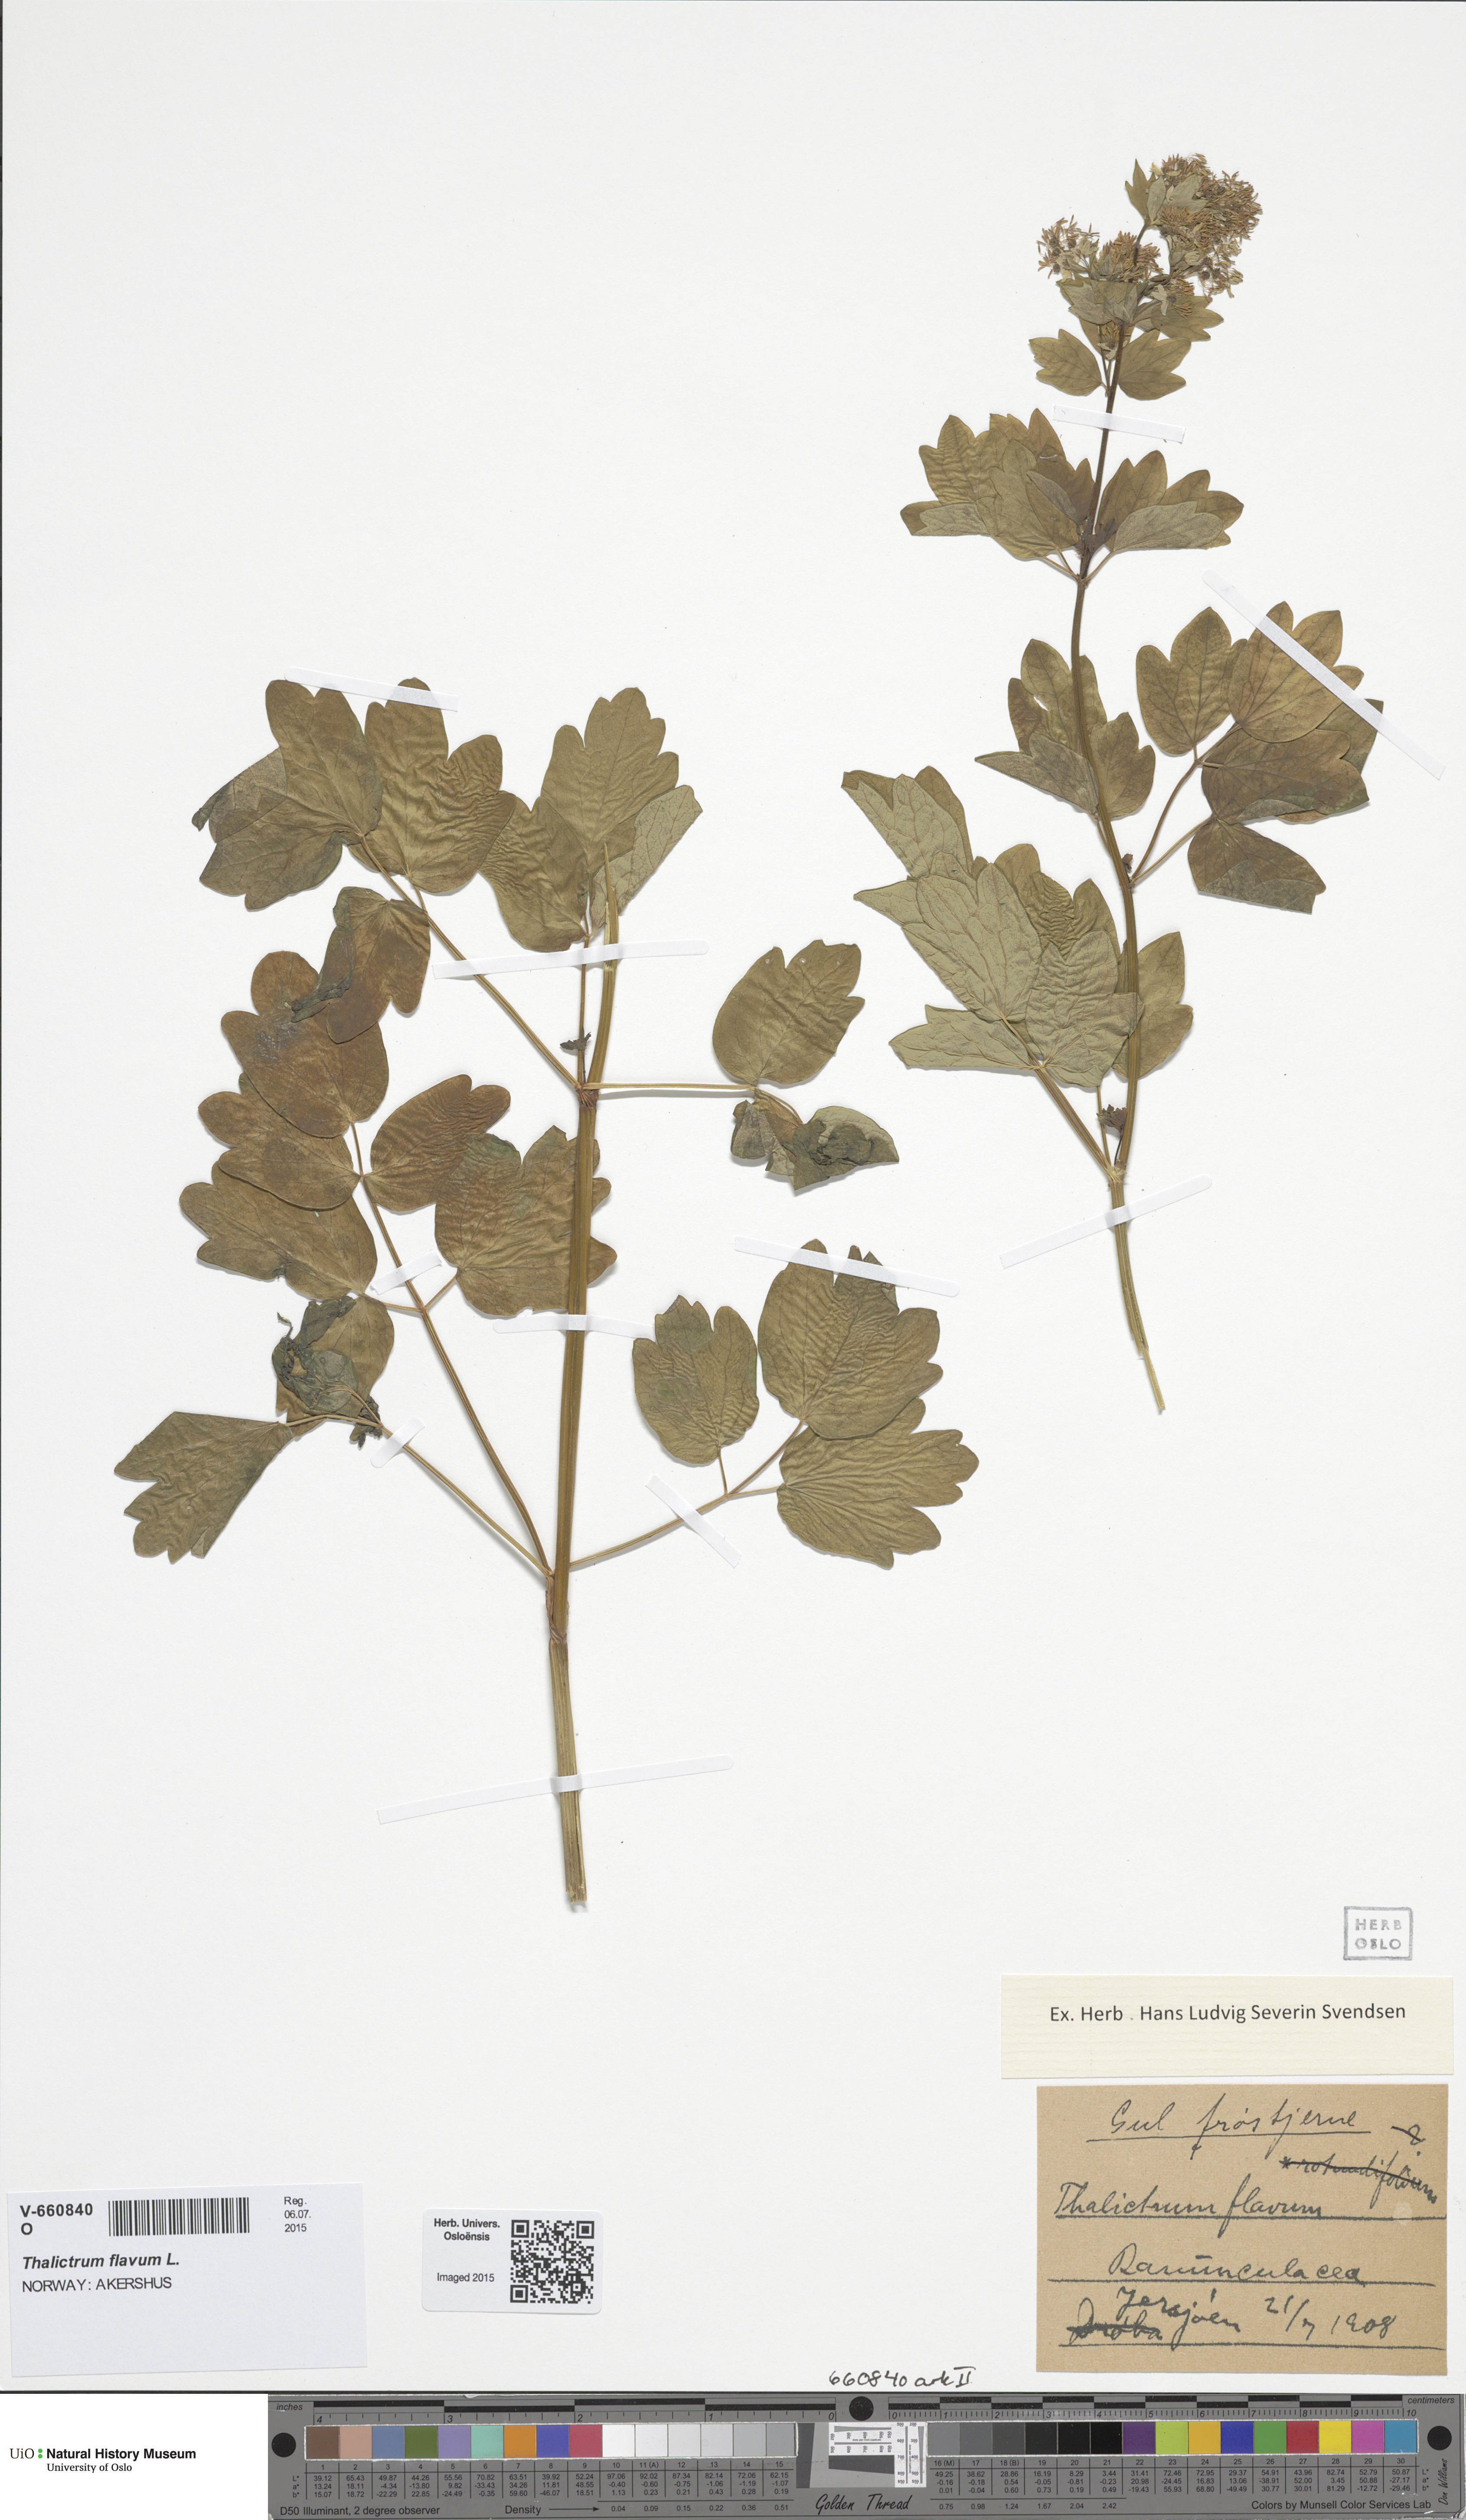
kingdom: Plantae
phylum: Tracheophyta
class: Magnoliopsida
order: Ranunculales
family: Ranunculaceae
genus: Thalictrum
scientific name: Thalictrum flavum
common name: Common meadow-rue
